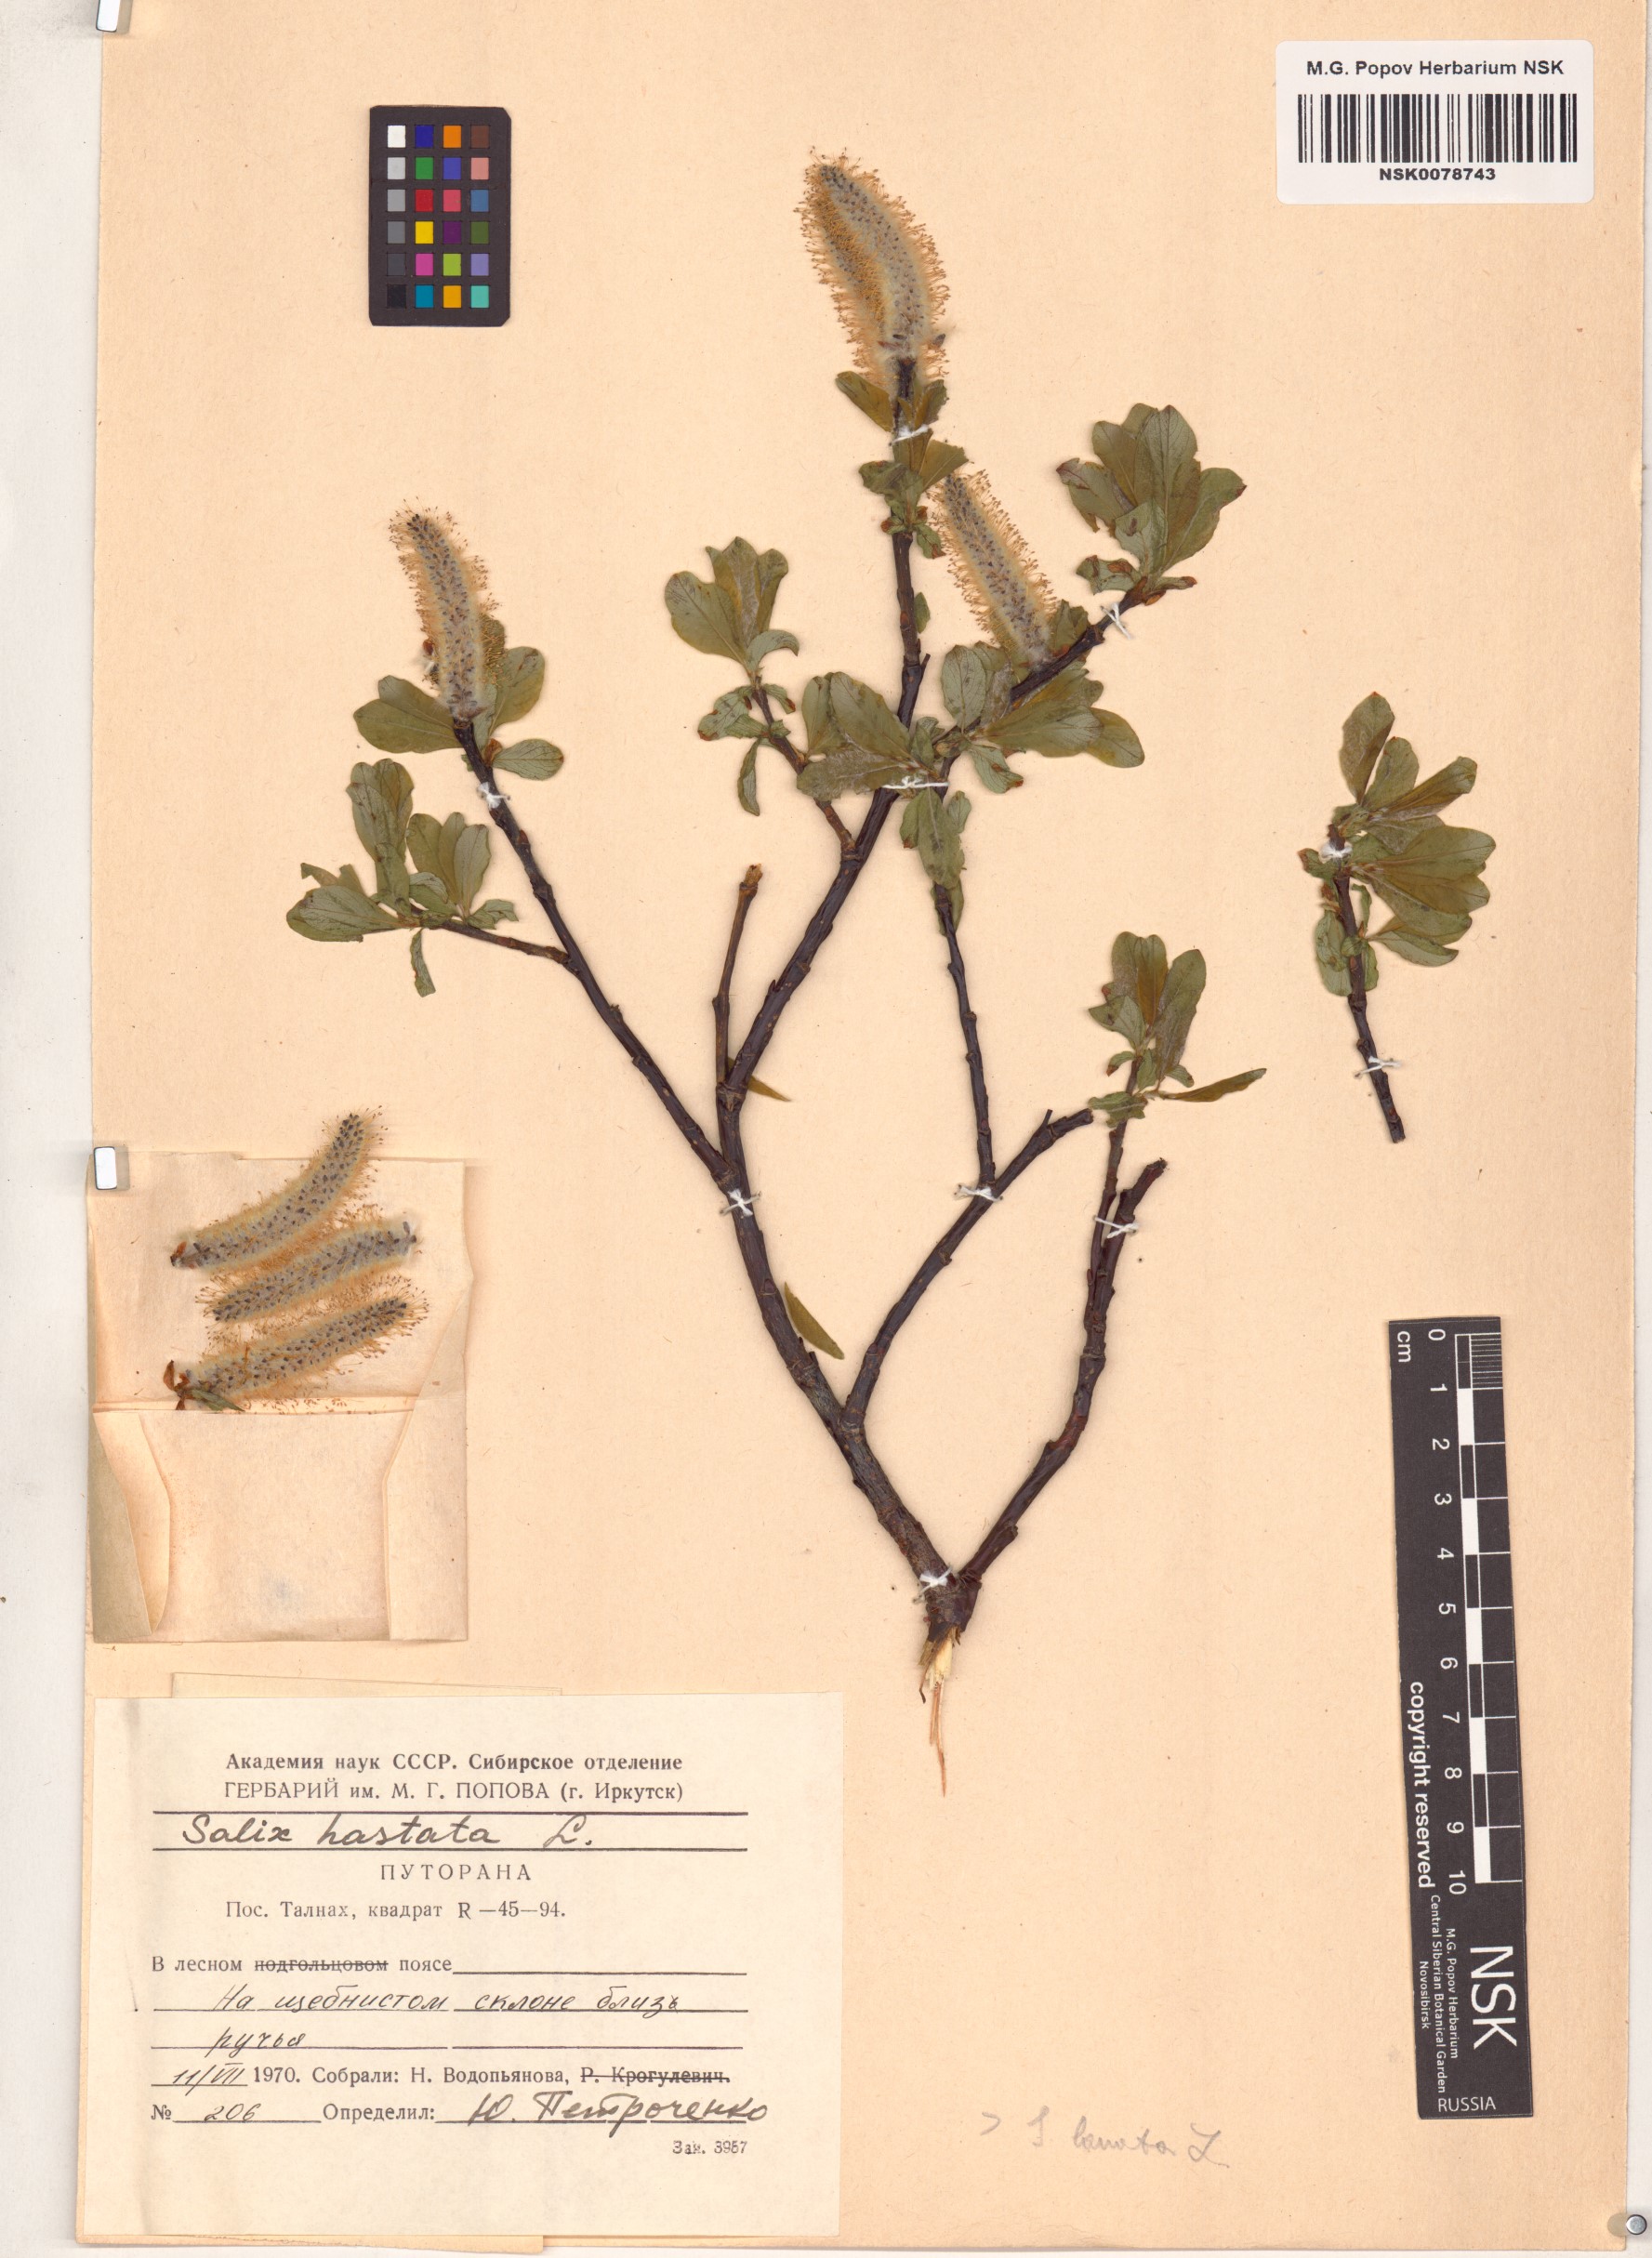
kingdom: Plantae
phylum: Tracheophyta
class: Magnoliopsida
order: Malpighiales
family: Salicaceae
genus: Salix
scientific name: Salix hastata
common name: Halberd willow
